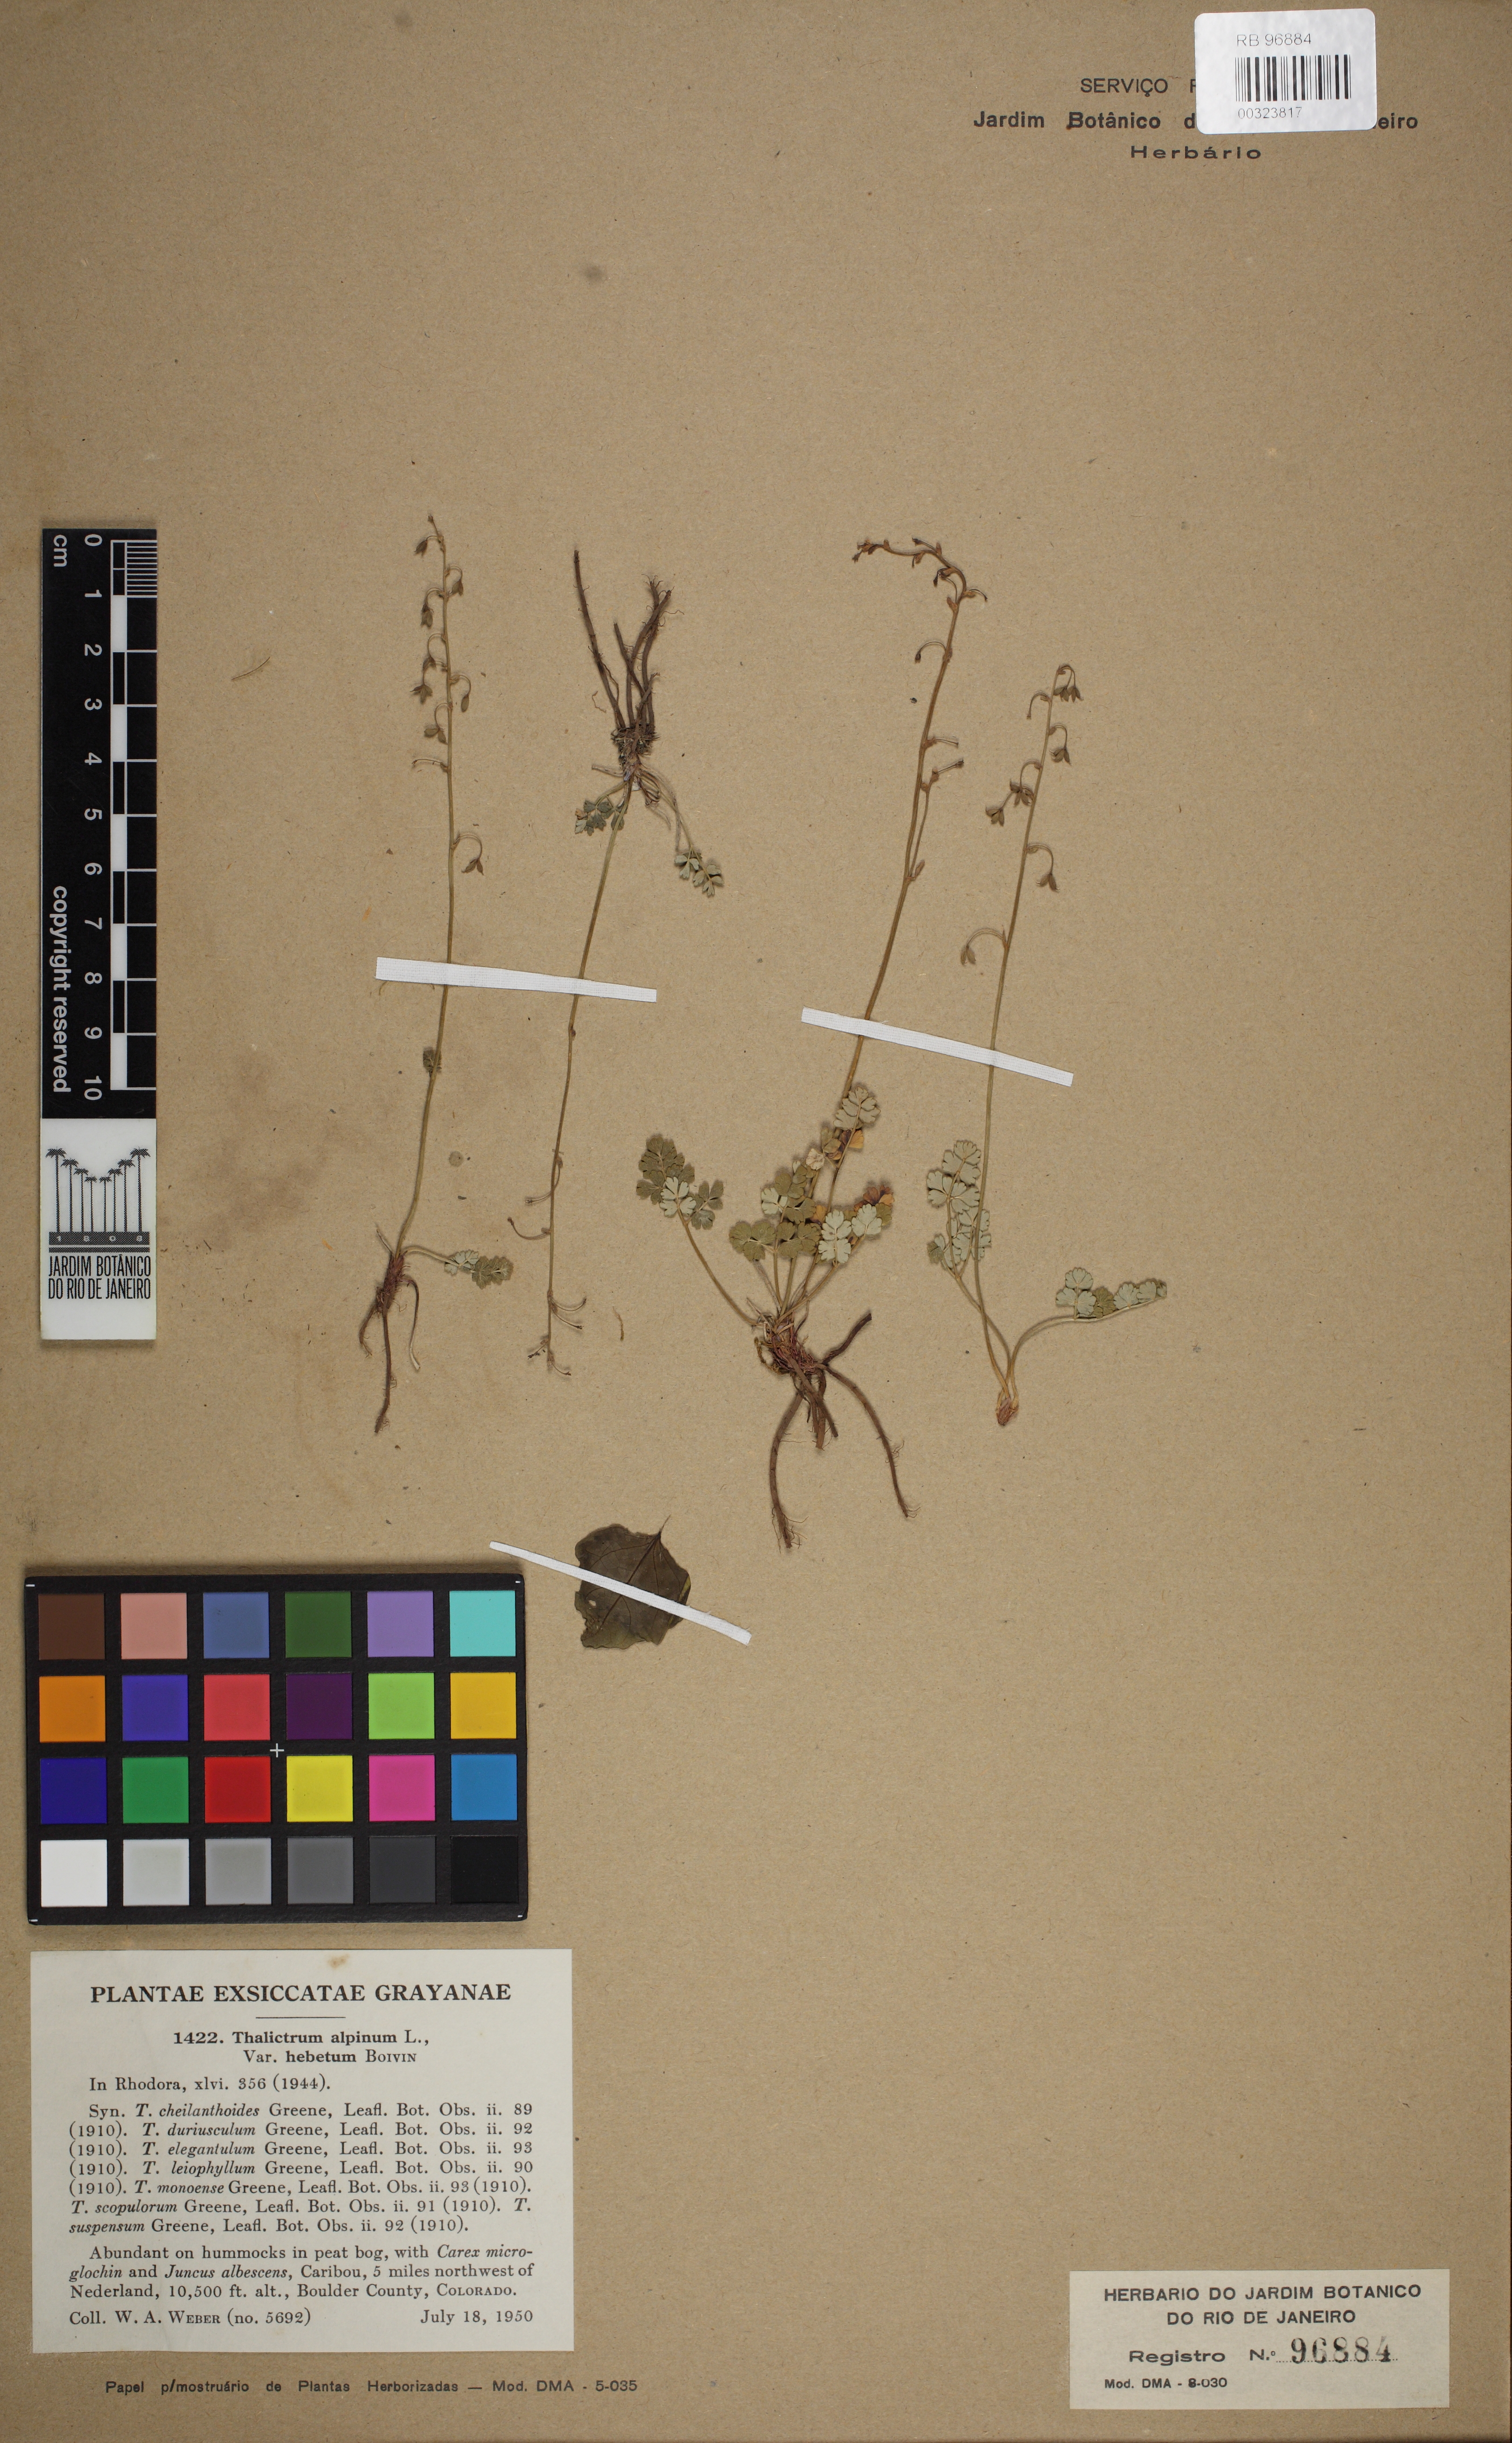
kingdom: Plantae
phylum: Tracheophyta
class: Magnoliopsida
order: Ranunculales
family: Ranunculaceae
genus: Thalictrum
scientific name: Thalictrum alpinum
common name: Alpine meadow-rue
